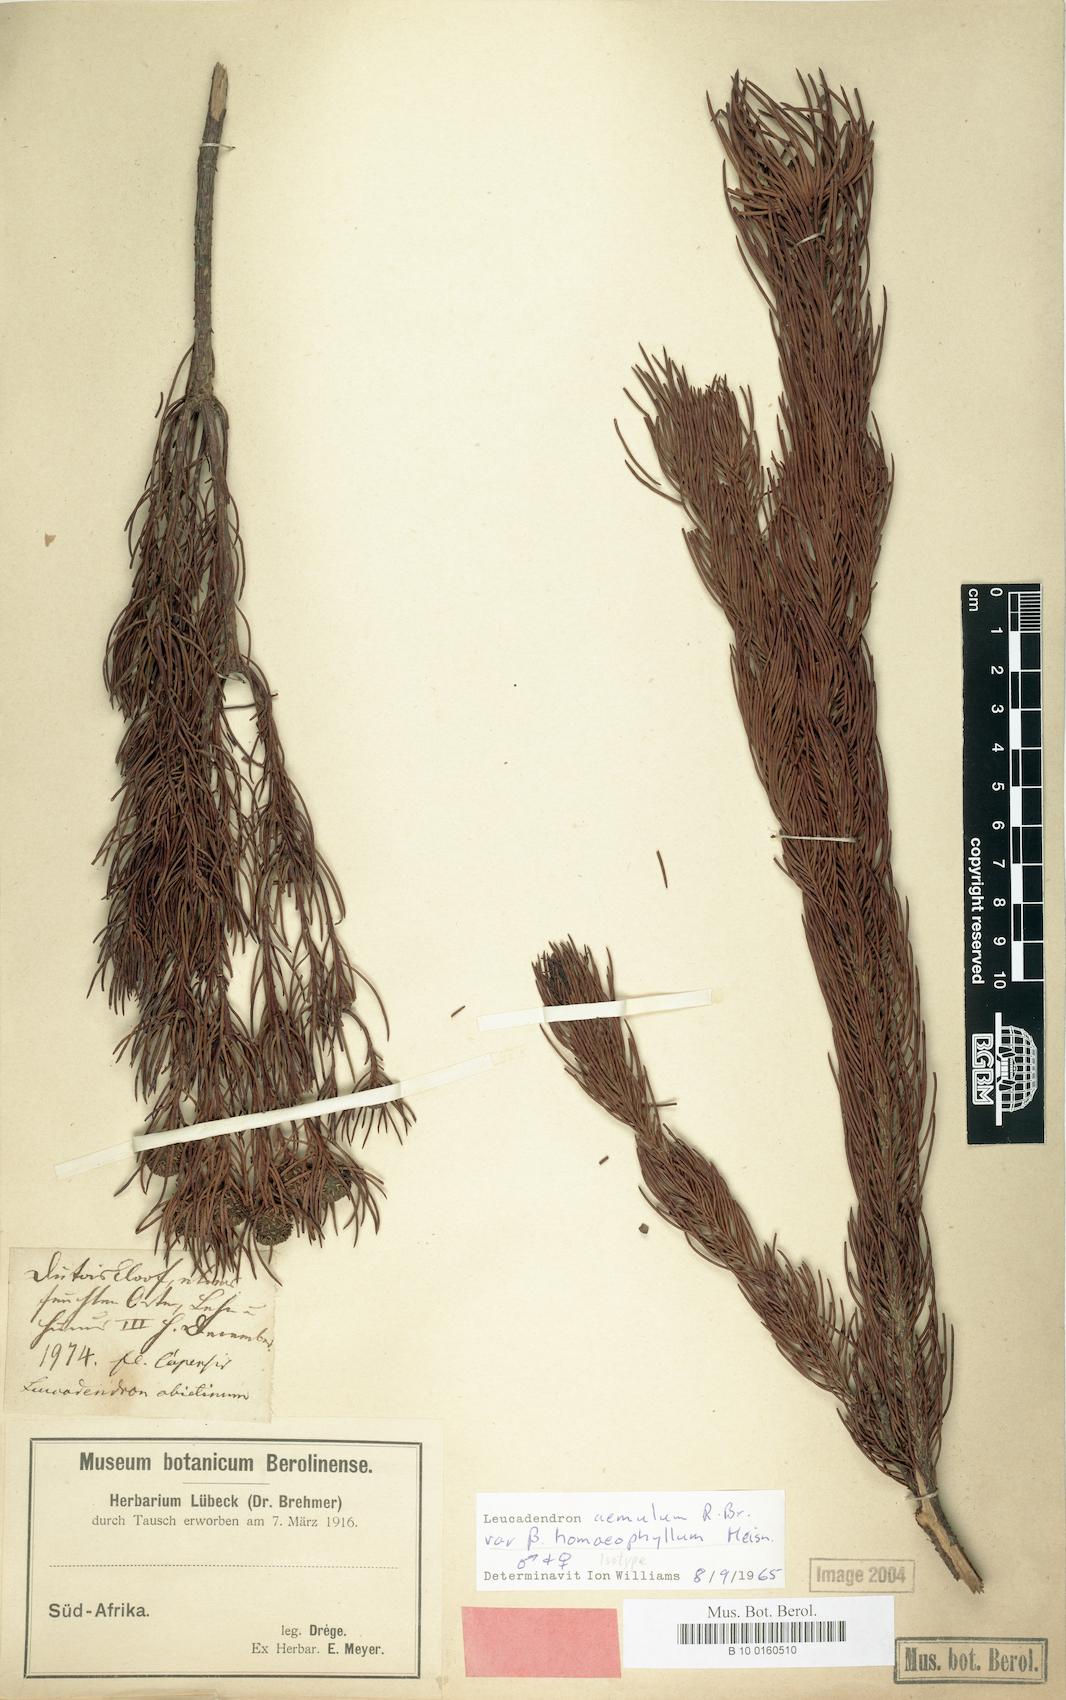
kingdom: Plantae
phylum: Tracheophyta
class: Magnoliopsida
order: Proteales
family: Proteaceae
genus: Leucadendron
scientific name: Leucadendron comosum
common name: Ridge-cone conebush
